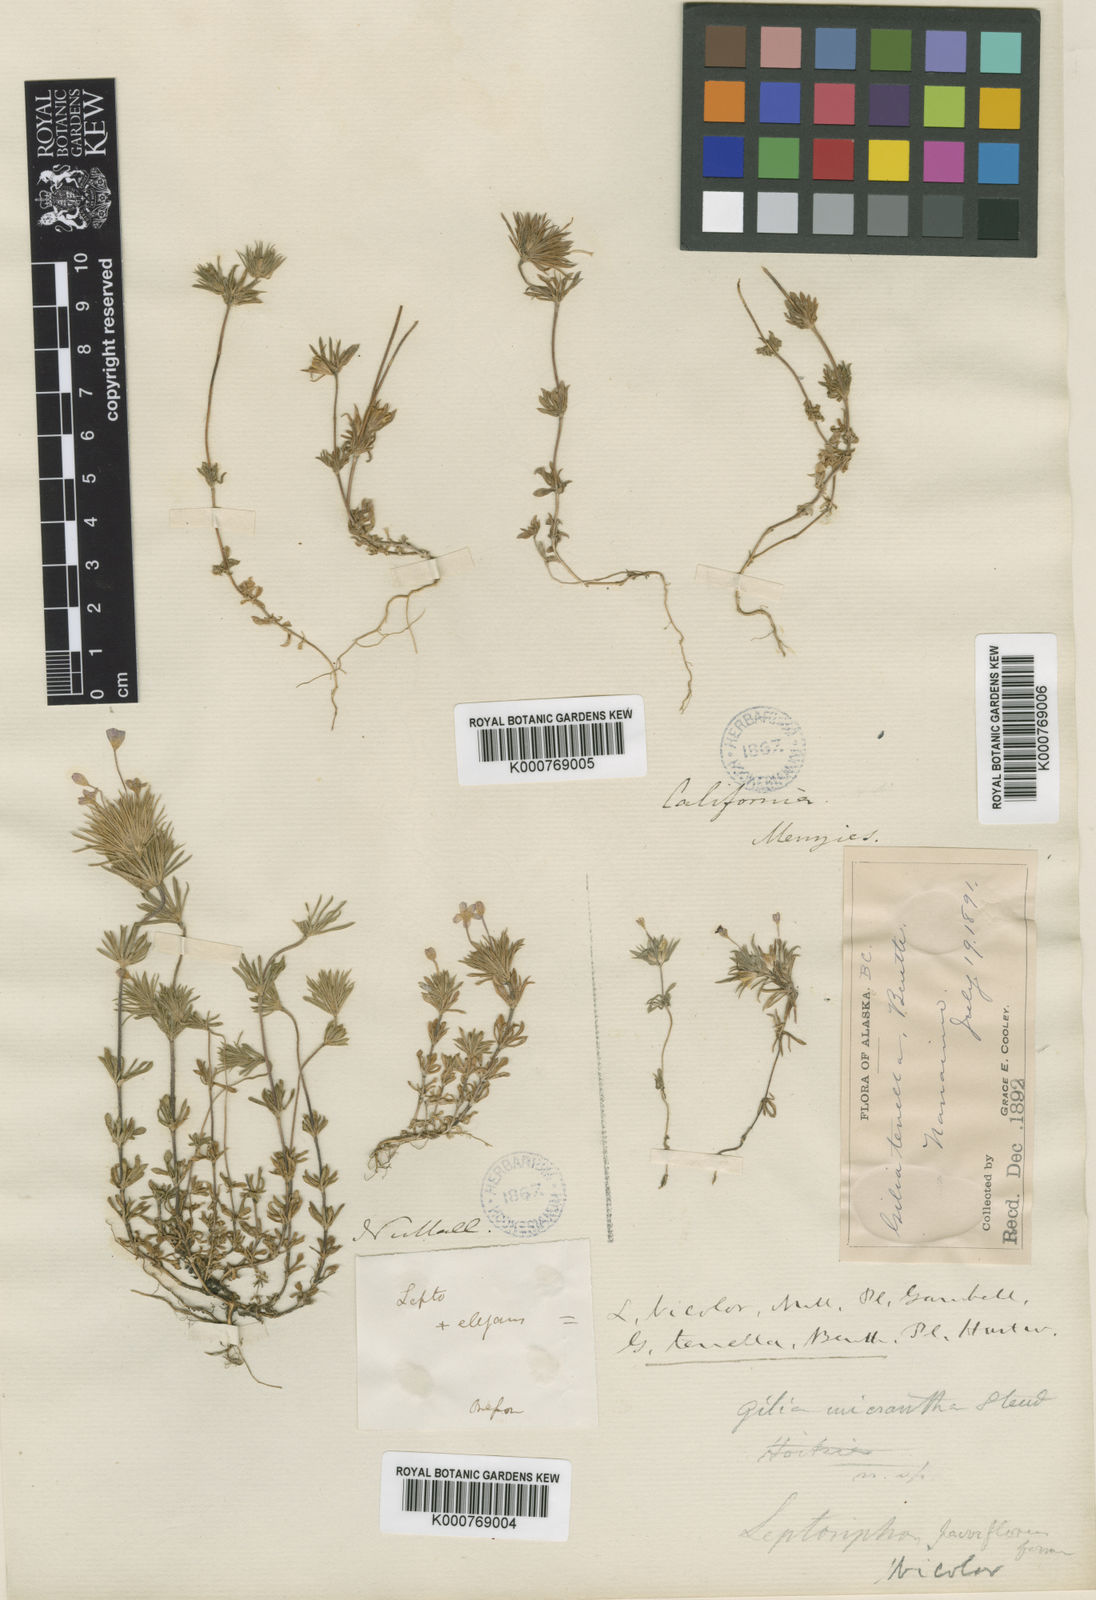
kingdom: Plantae
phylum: Tracheophyta
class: Magnoliopsida
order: Ericales
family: Polemoniaceae
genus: Leptosiphon
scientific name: Leptosiphon bicolor
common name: True babystars
